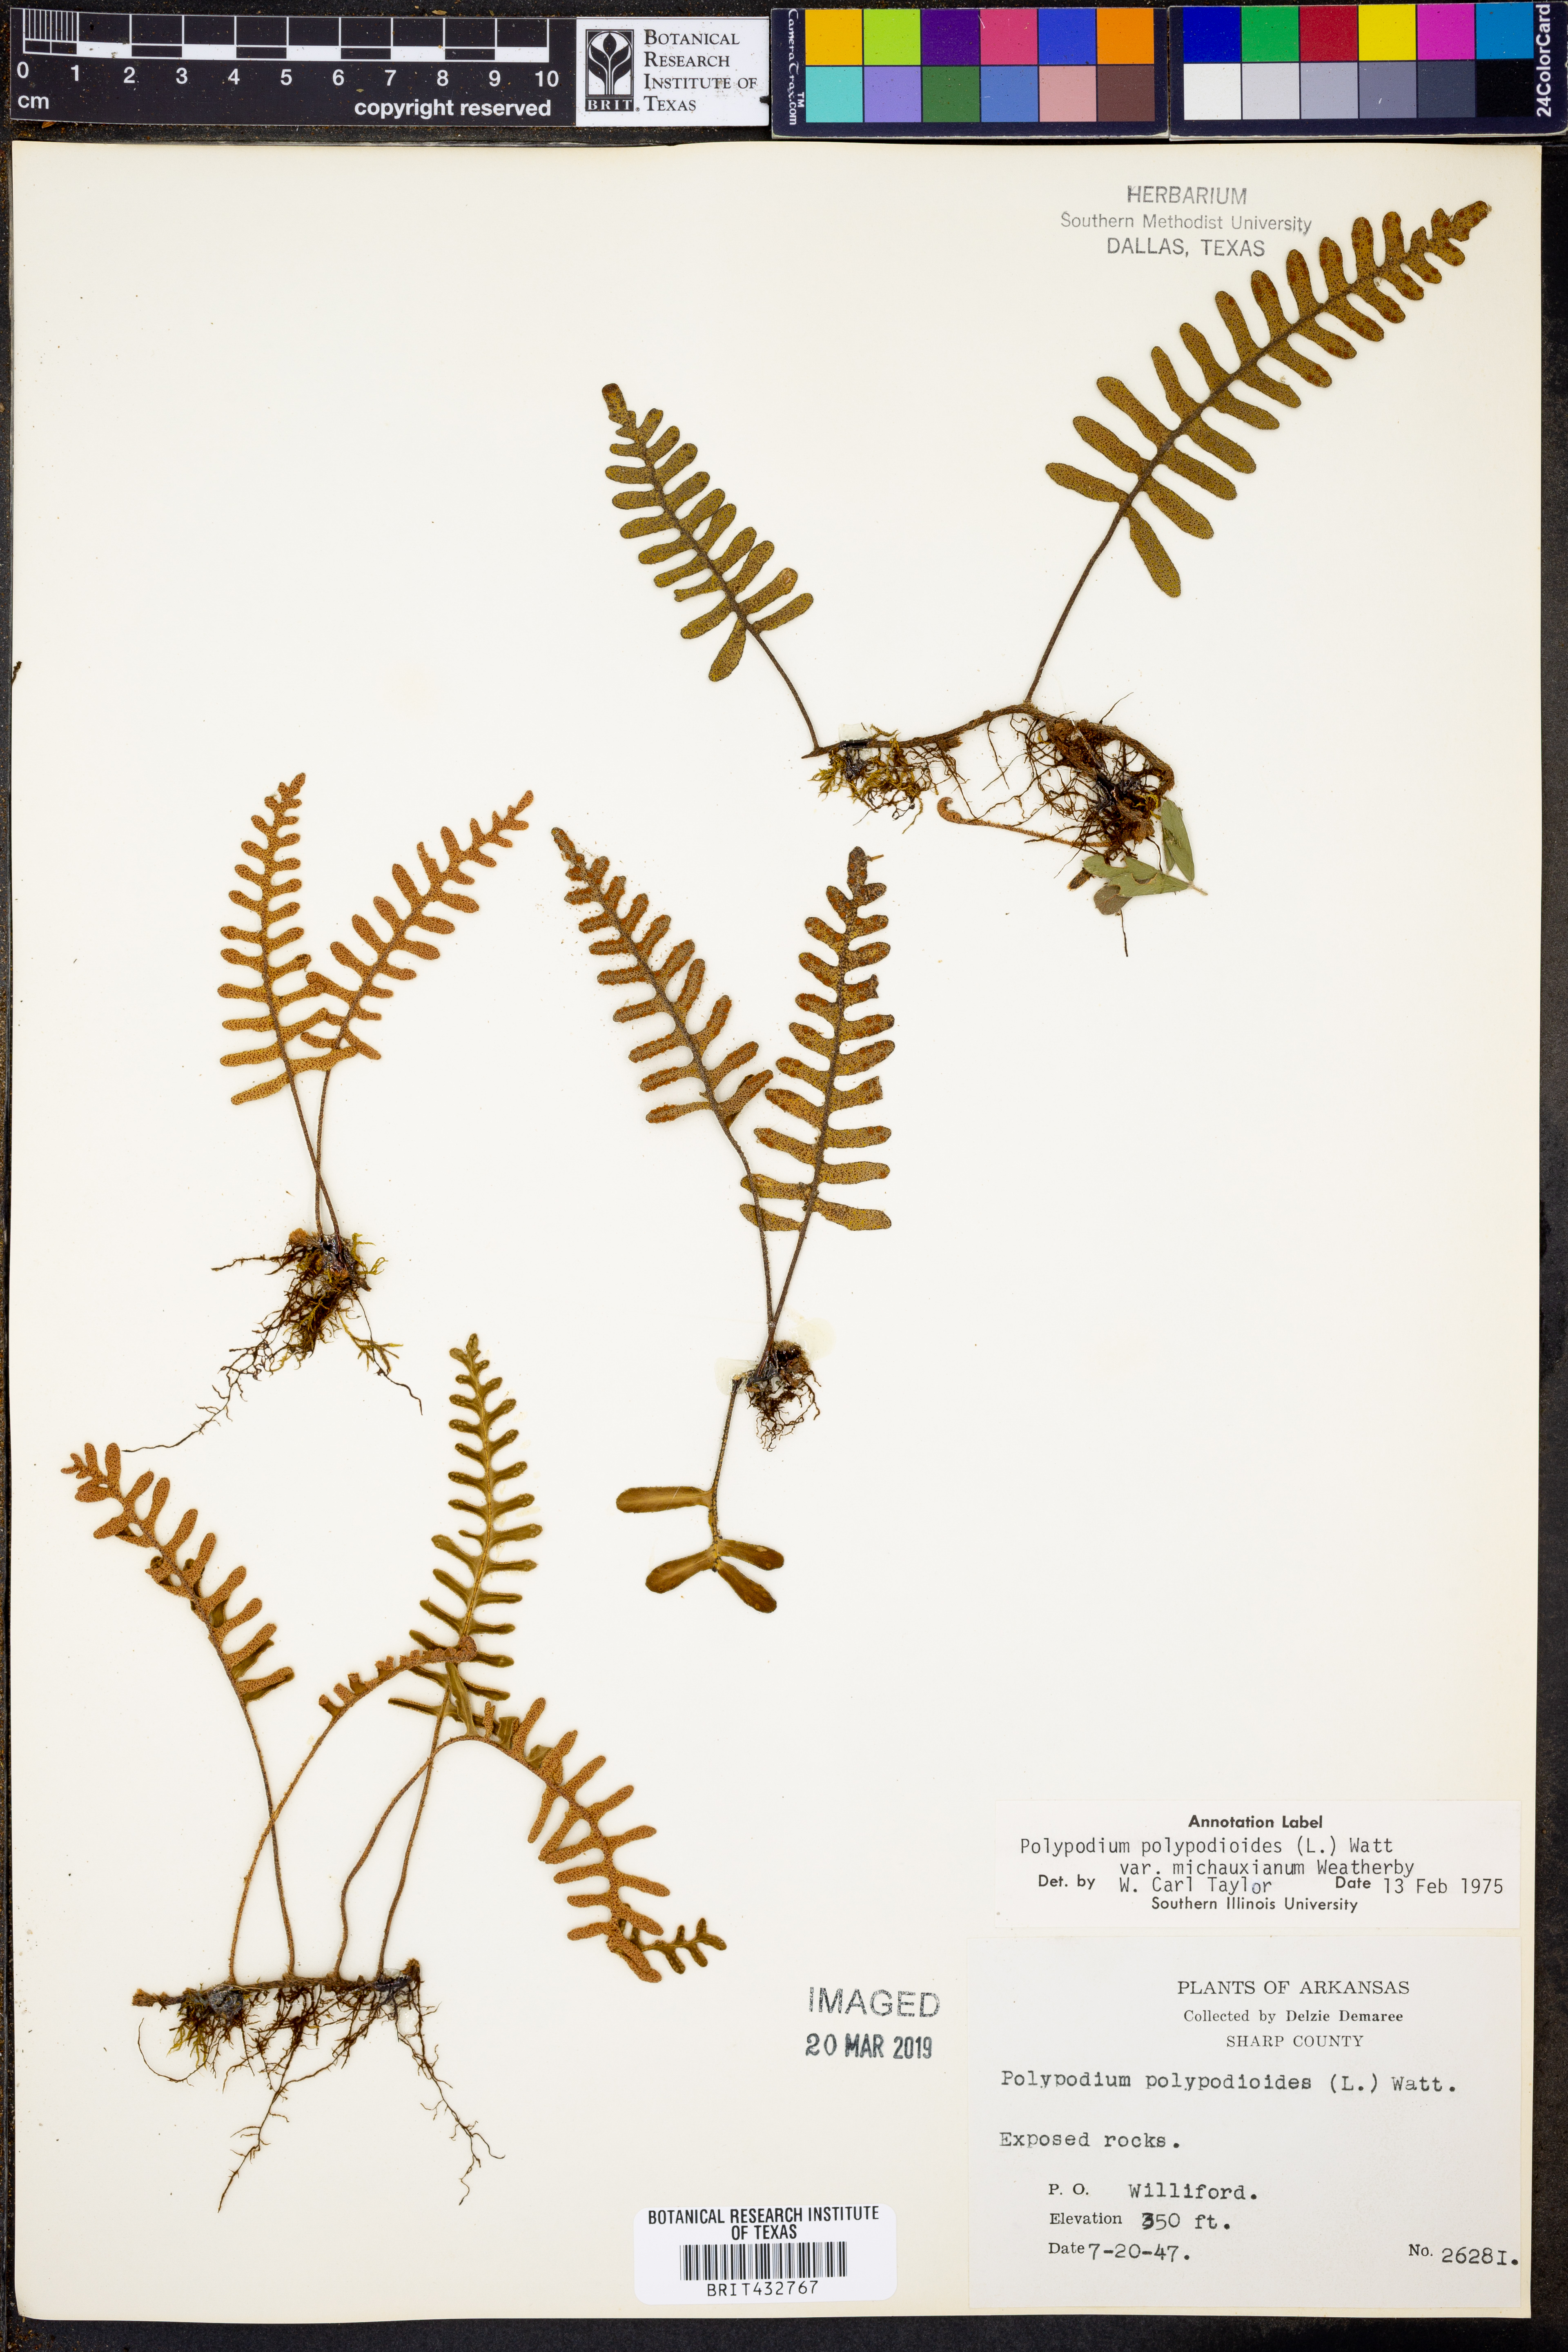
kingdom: Plantae
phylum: Tracheophyta
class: Polypodiopsida
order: Polypodiales
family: Polypodiaceae
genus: Pleopeltis
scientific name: Pleopeltis michauxiana
